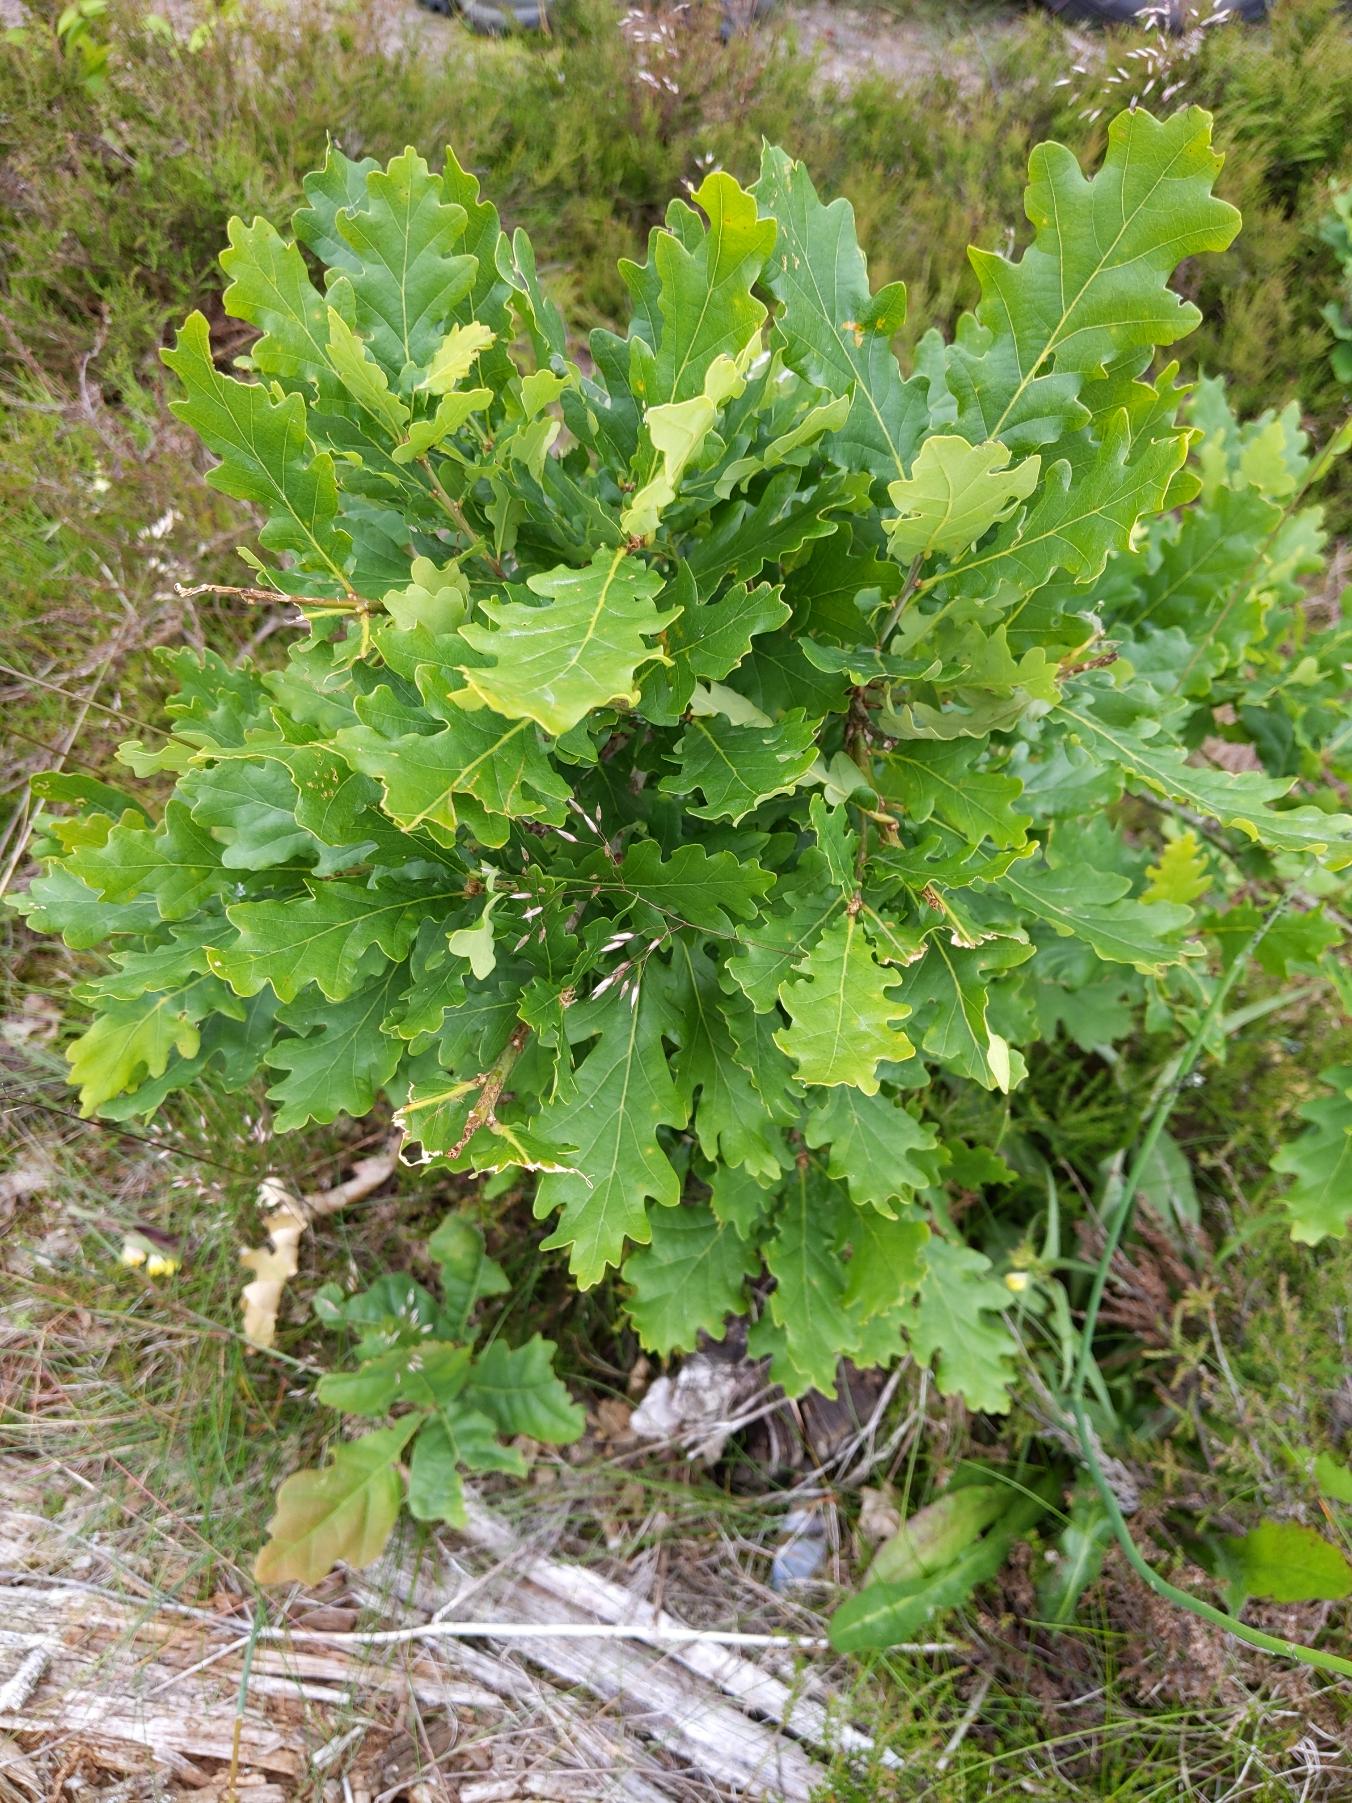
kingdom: Plantae
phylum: Tracheophyta
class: Magnoliopsida
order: Fagales
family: Fagaceae
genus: Quercus
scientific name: Quercus robur
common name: Stilk-eg/almindelig eg
